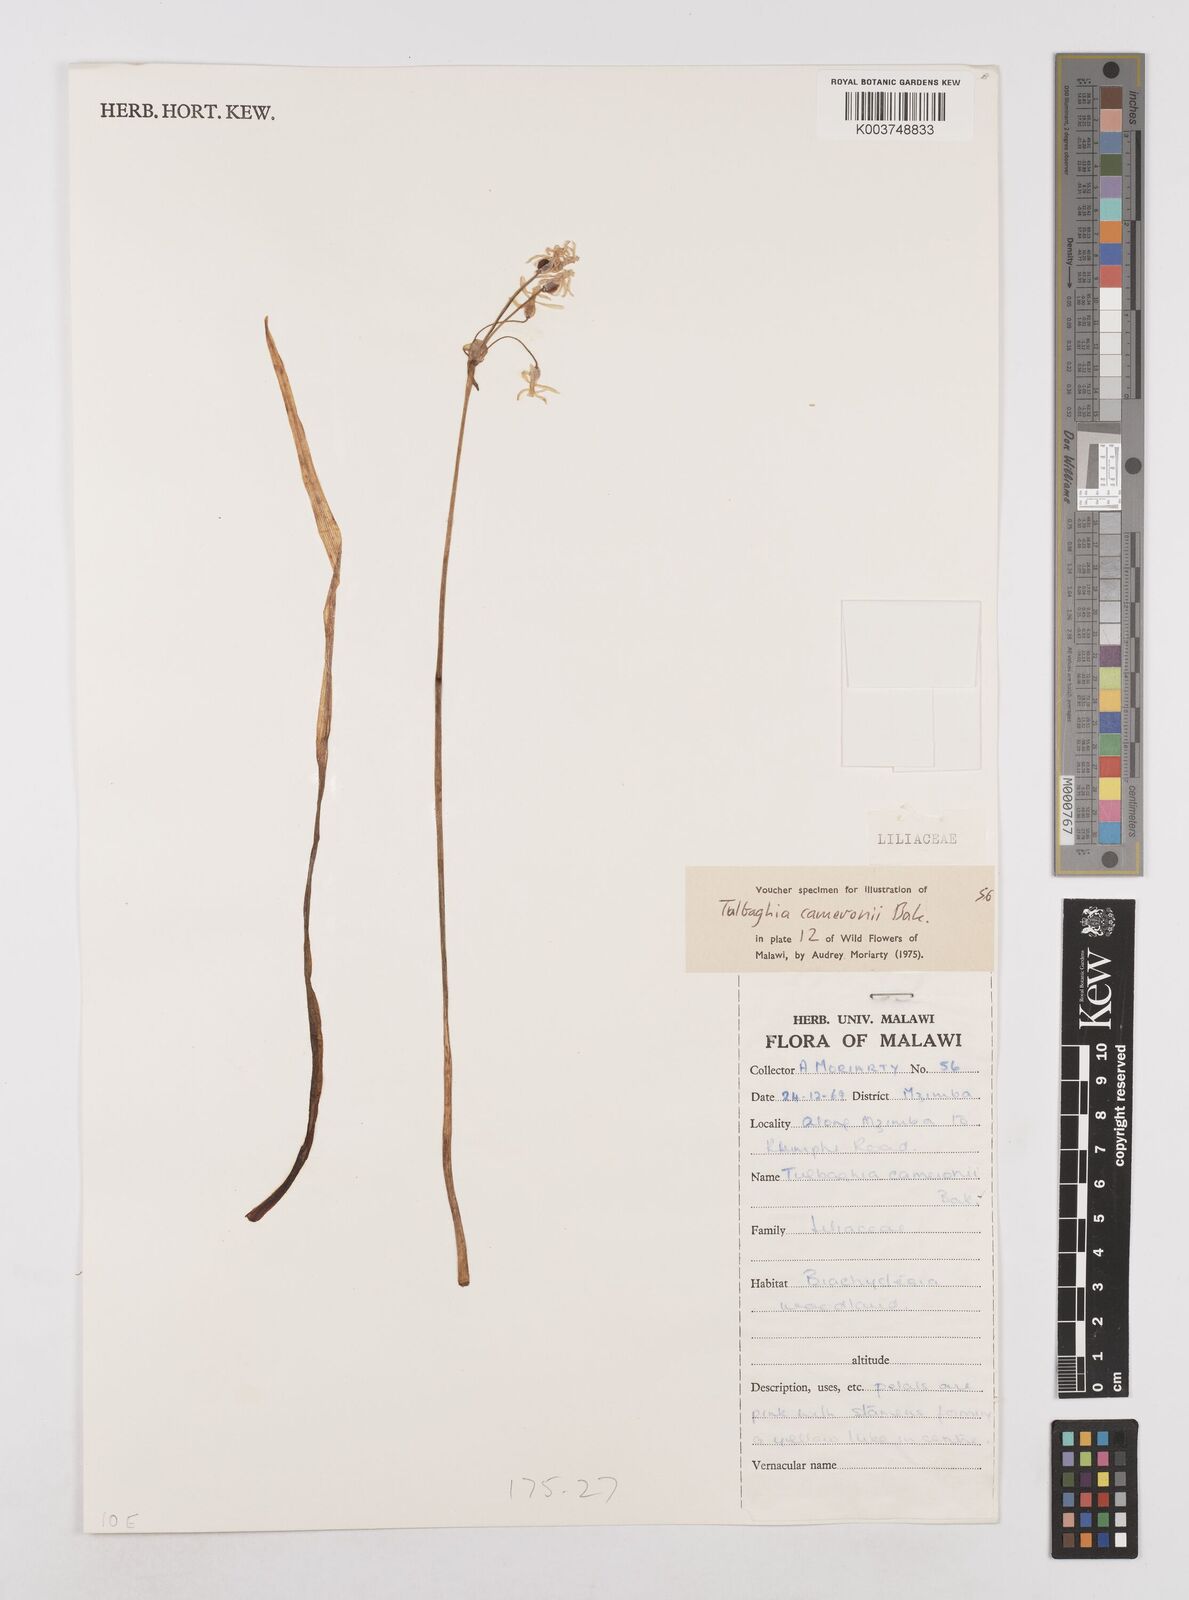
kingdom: Plantae
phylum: Tracheophyta
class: Liliopsida
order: Asparagales
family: Amaryllidaceae
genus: Tulbaghia
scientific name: Tulbaghia cameronii
